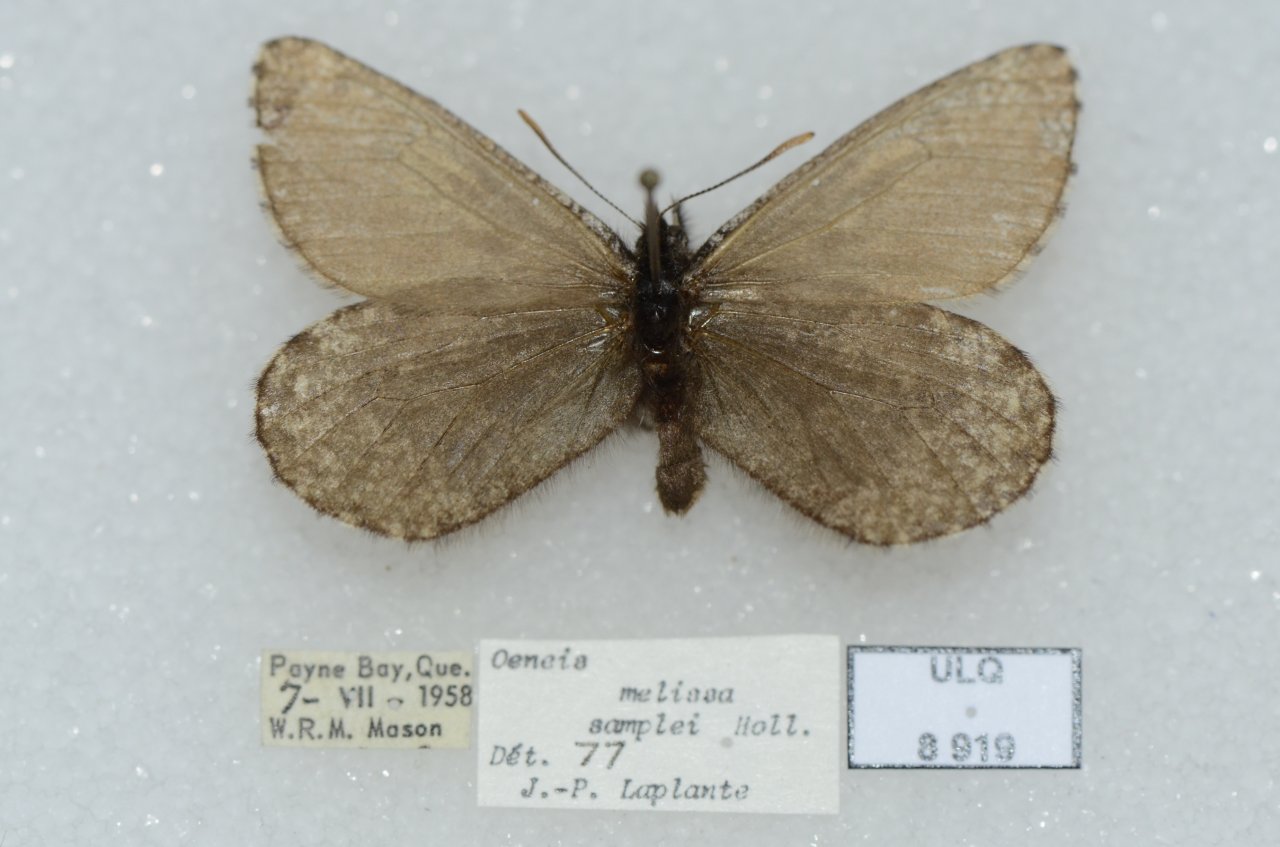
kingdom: Animalia
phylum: Arthropoda
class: Insecta
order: Lepidoptera
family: Nymphalidae
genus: Oeneis
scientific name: Oeneis melissa
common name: Melissa Arctic
